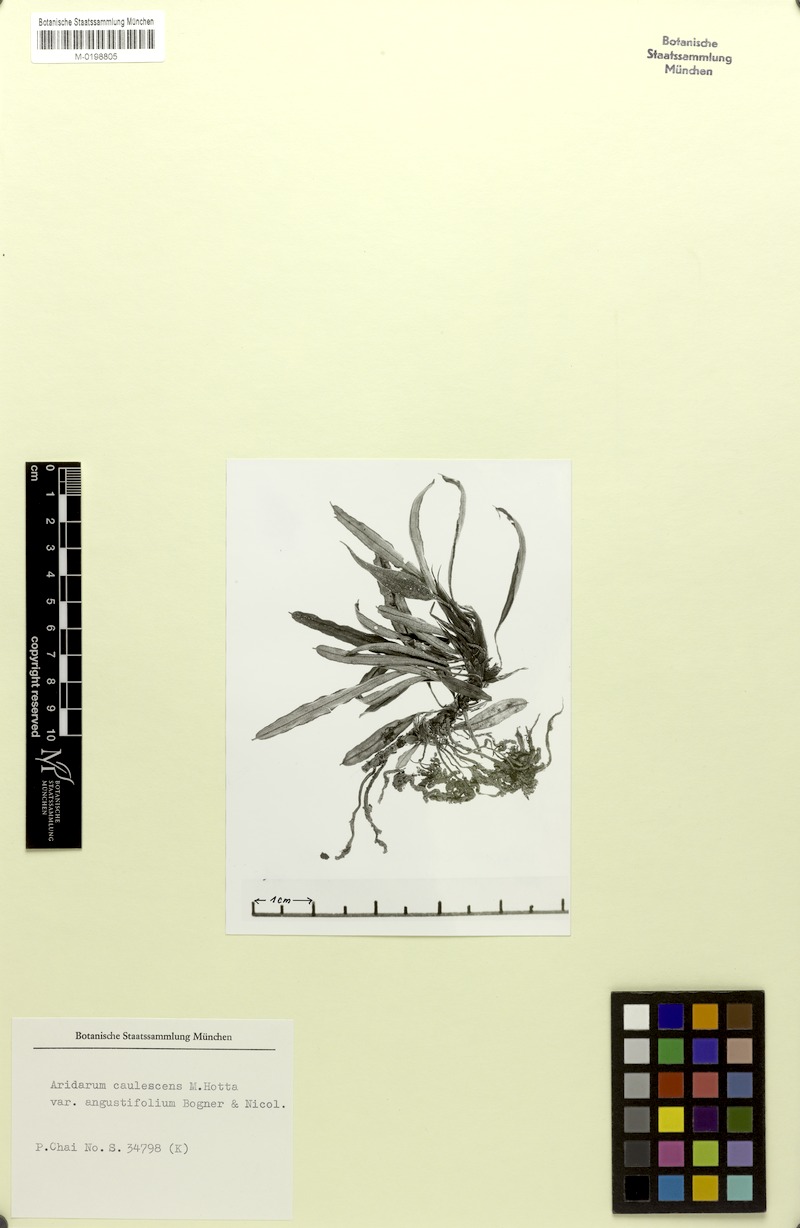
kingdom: Plantae
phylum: Tracheophyta
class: Liliopsida
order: Alismatales
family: Araceae
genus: Burttianthus
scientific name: Burttianthus caulescens
